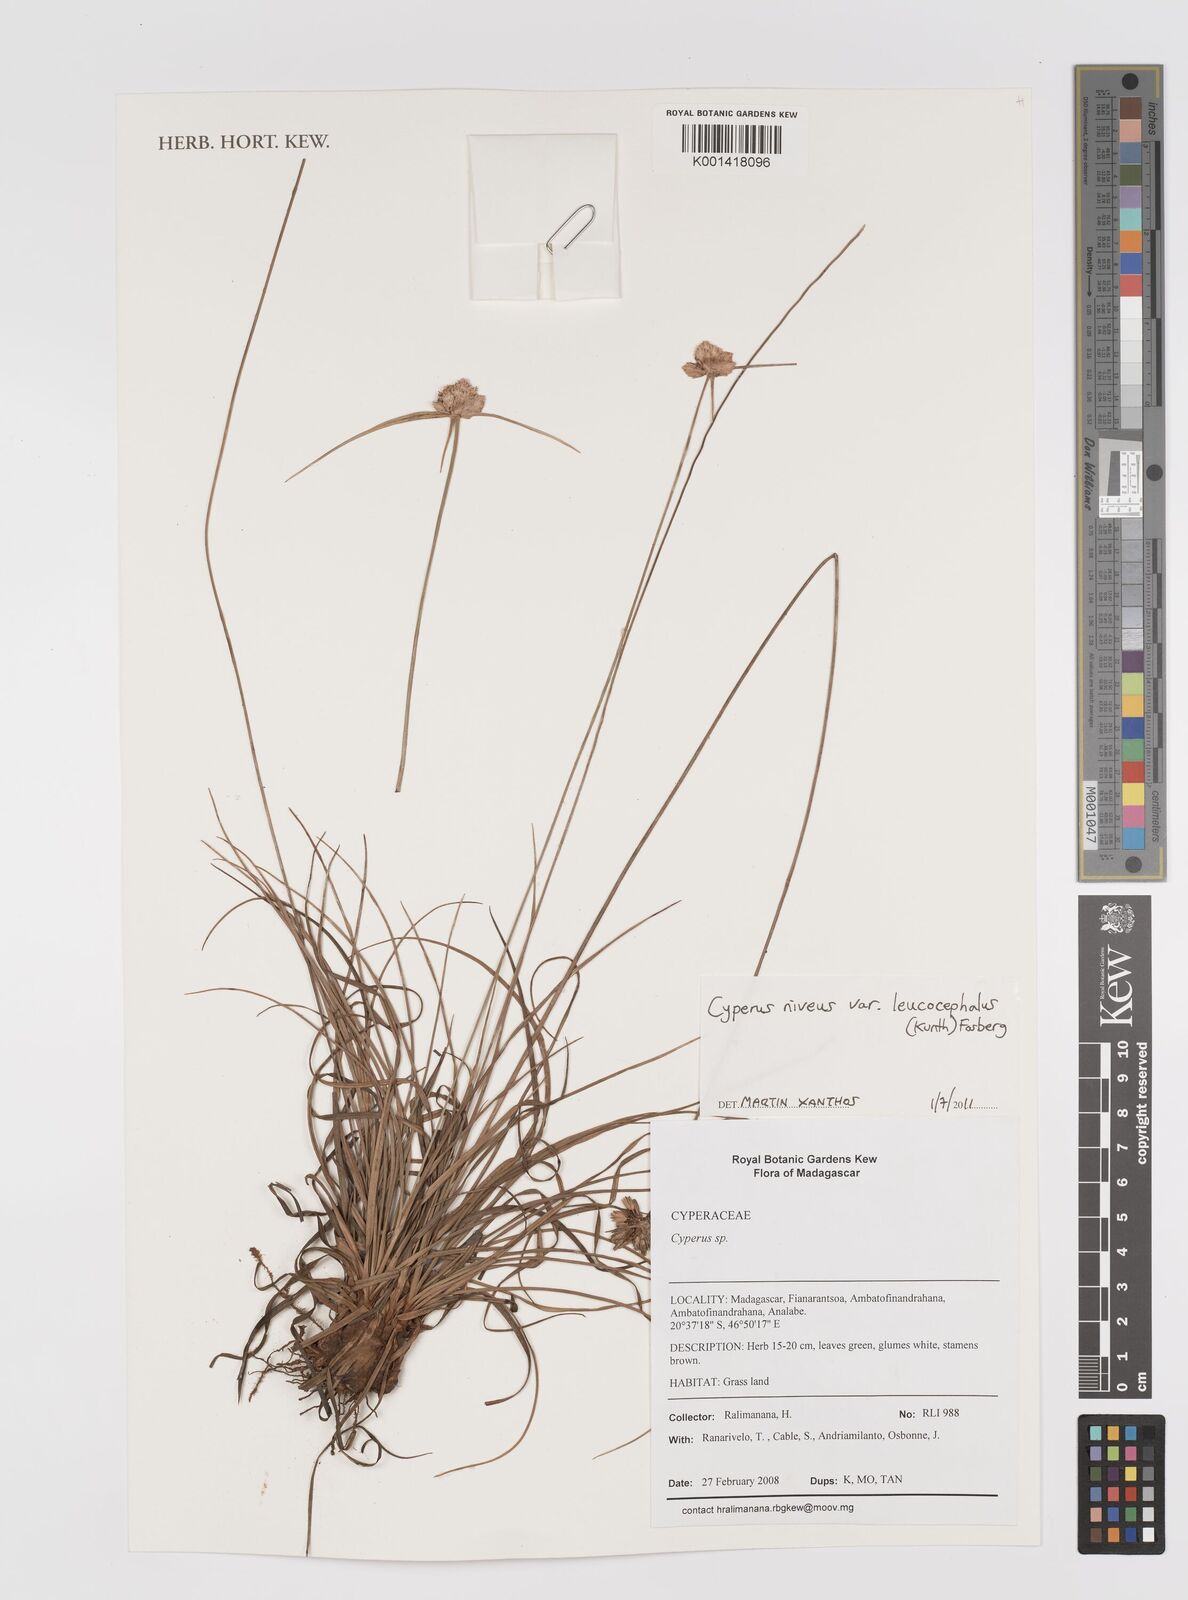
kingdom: Plantae
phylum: Tracheophyta
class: Liliopsida
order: Poales
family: Cyperaceae
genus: Cyperus
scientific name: Cyperus niveus
